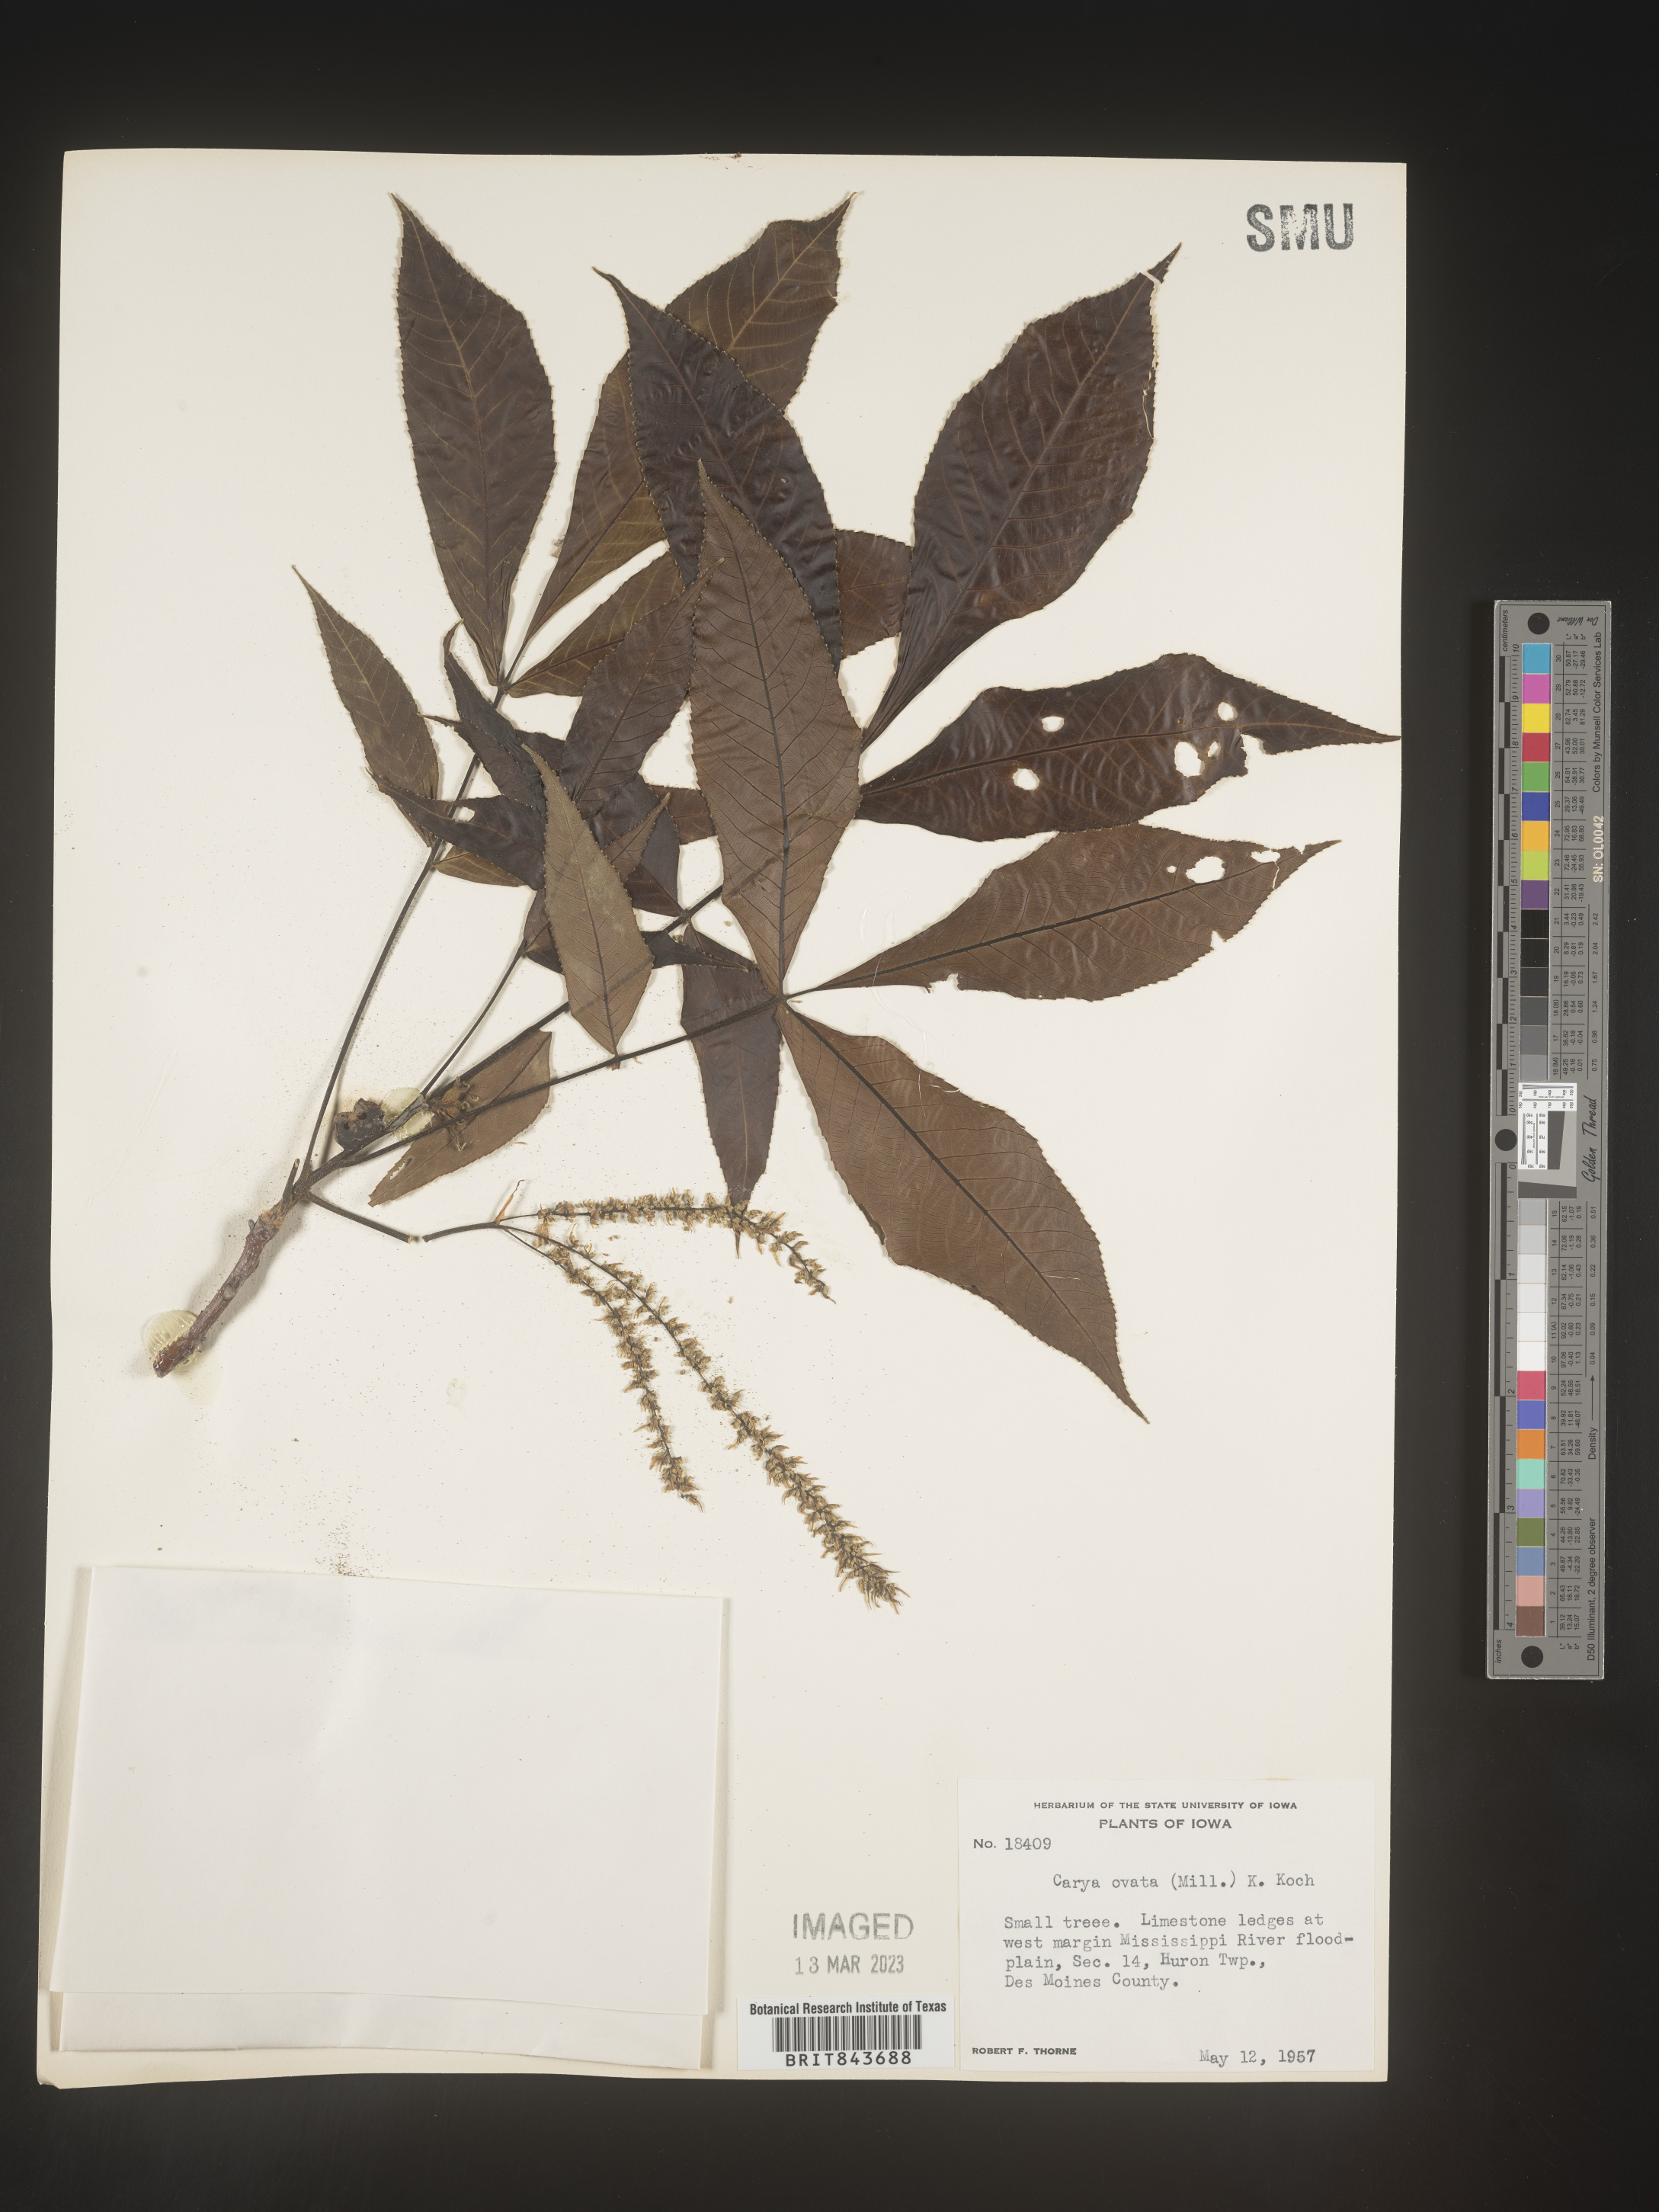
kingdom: Plantae
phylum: Tracheophyta
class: Magnoliopsida
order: Fagales
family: Juglandaceae
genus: Carya
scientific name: Carya ovata
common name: Shagbark hickory
